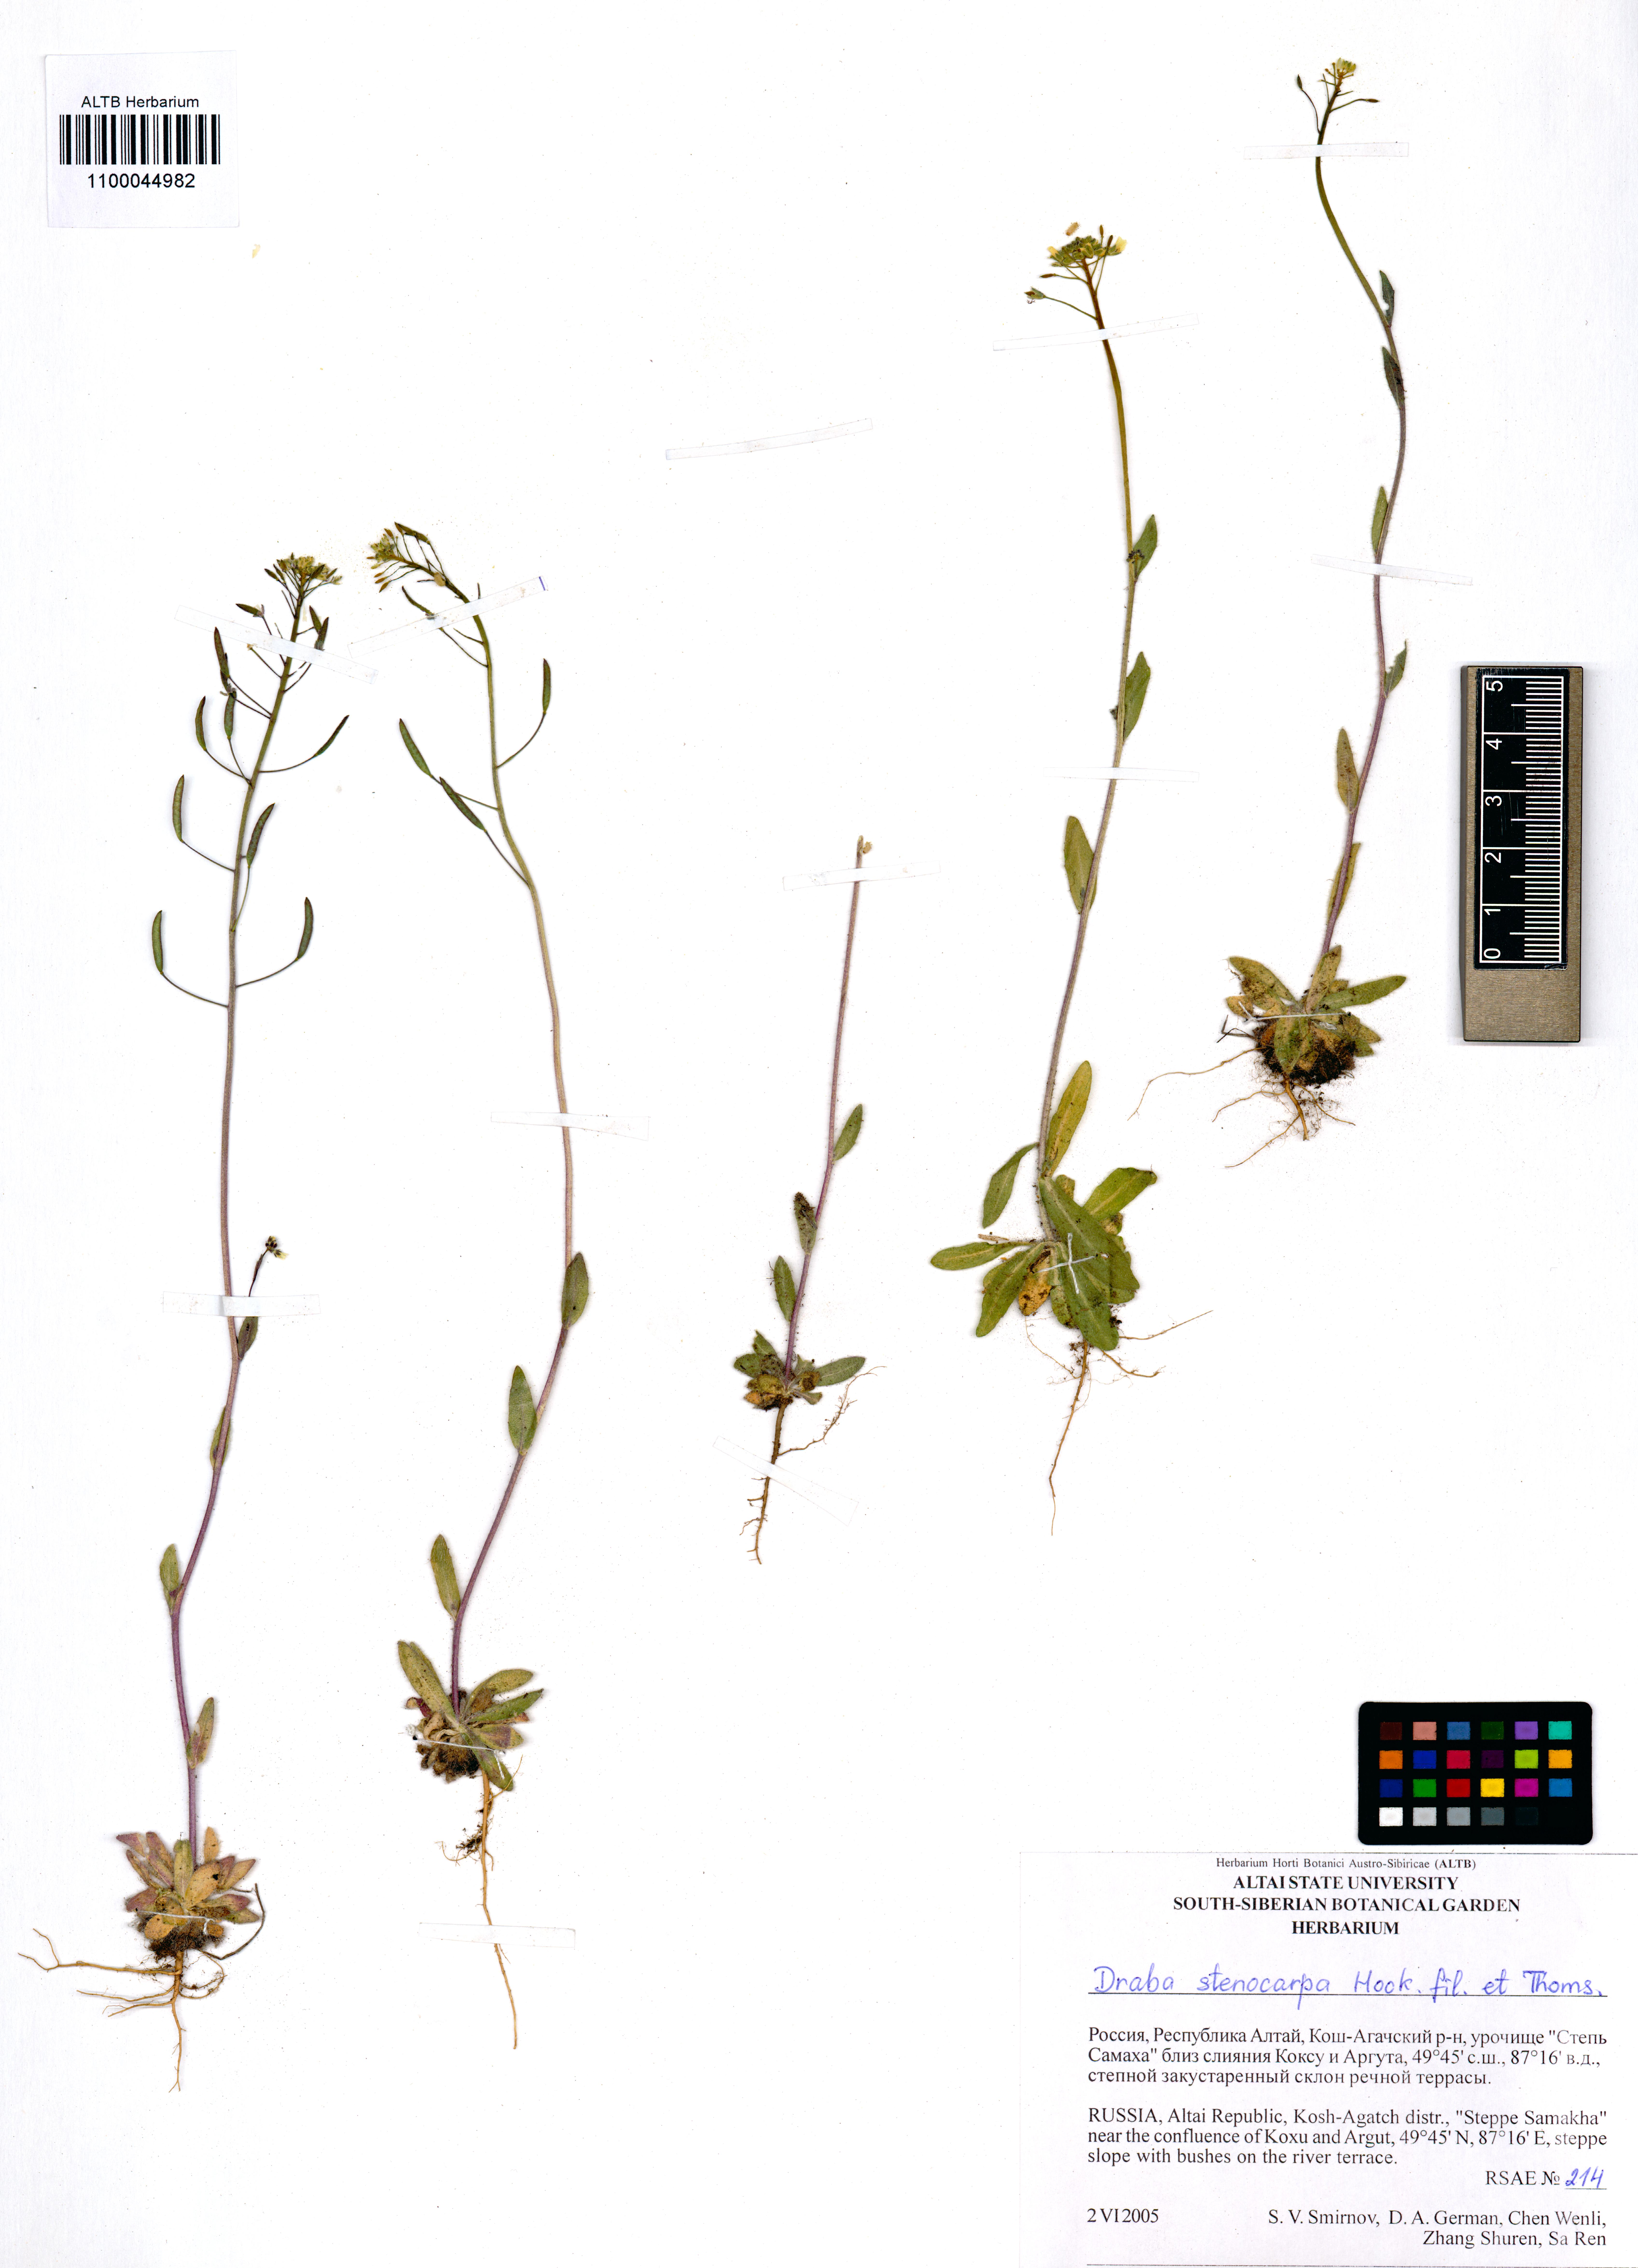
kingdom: Plantae
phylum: Tracheophyta
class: Magnoliopsida
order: Brassicales
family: Brassicaceae
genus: Draba
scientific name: Draba stenocarpa
